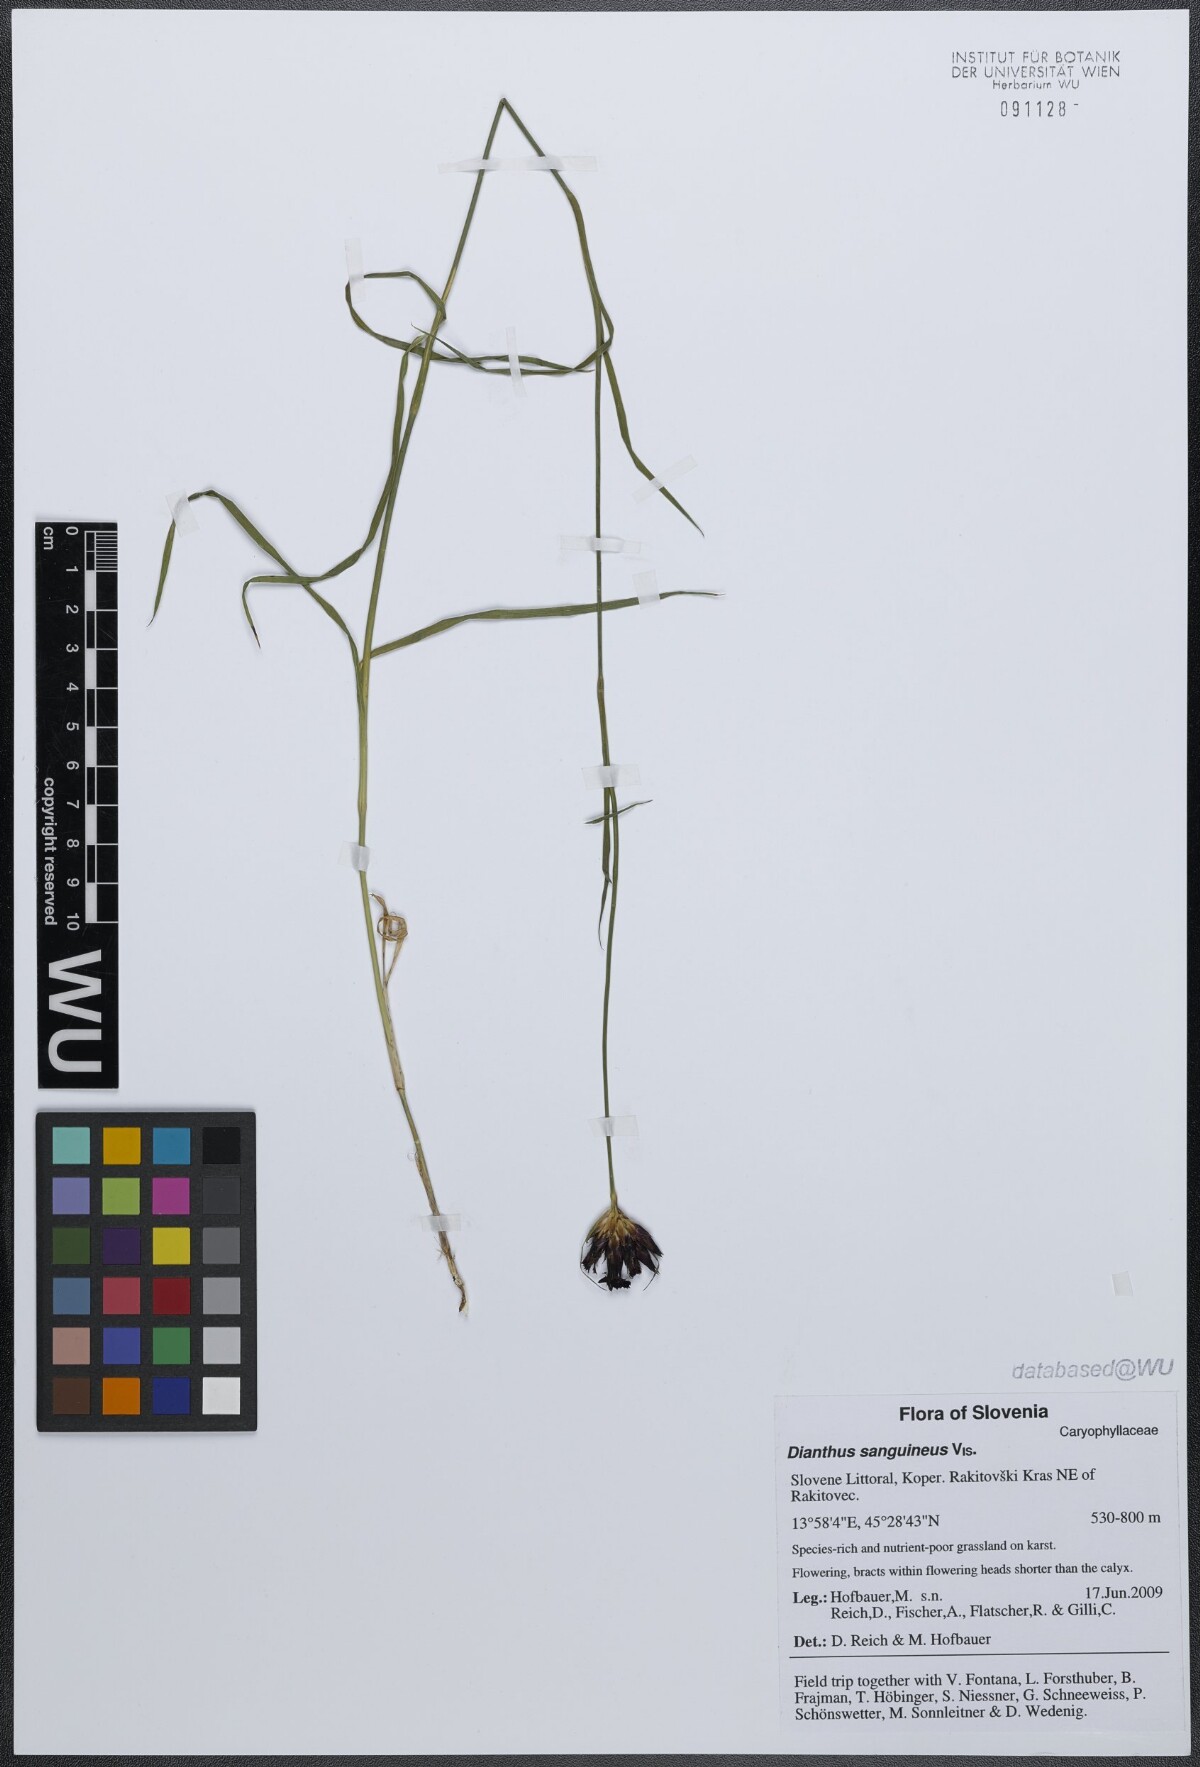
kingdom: Plantae
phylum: Tracheophyta
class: Magnoliopsida
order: Caryophyllales
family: Caryophyllaceae
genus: Dianthus
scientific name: Dianthus carthusianorum
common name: Carthusian pink
